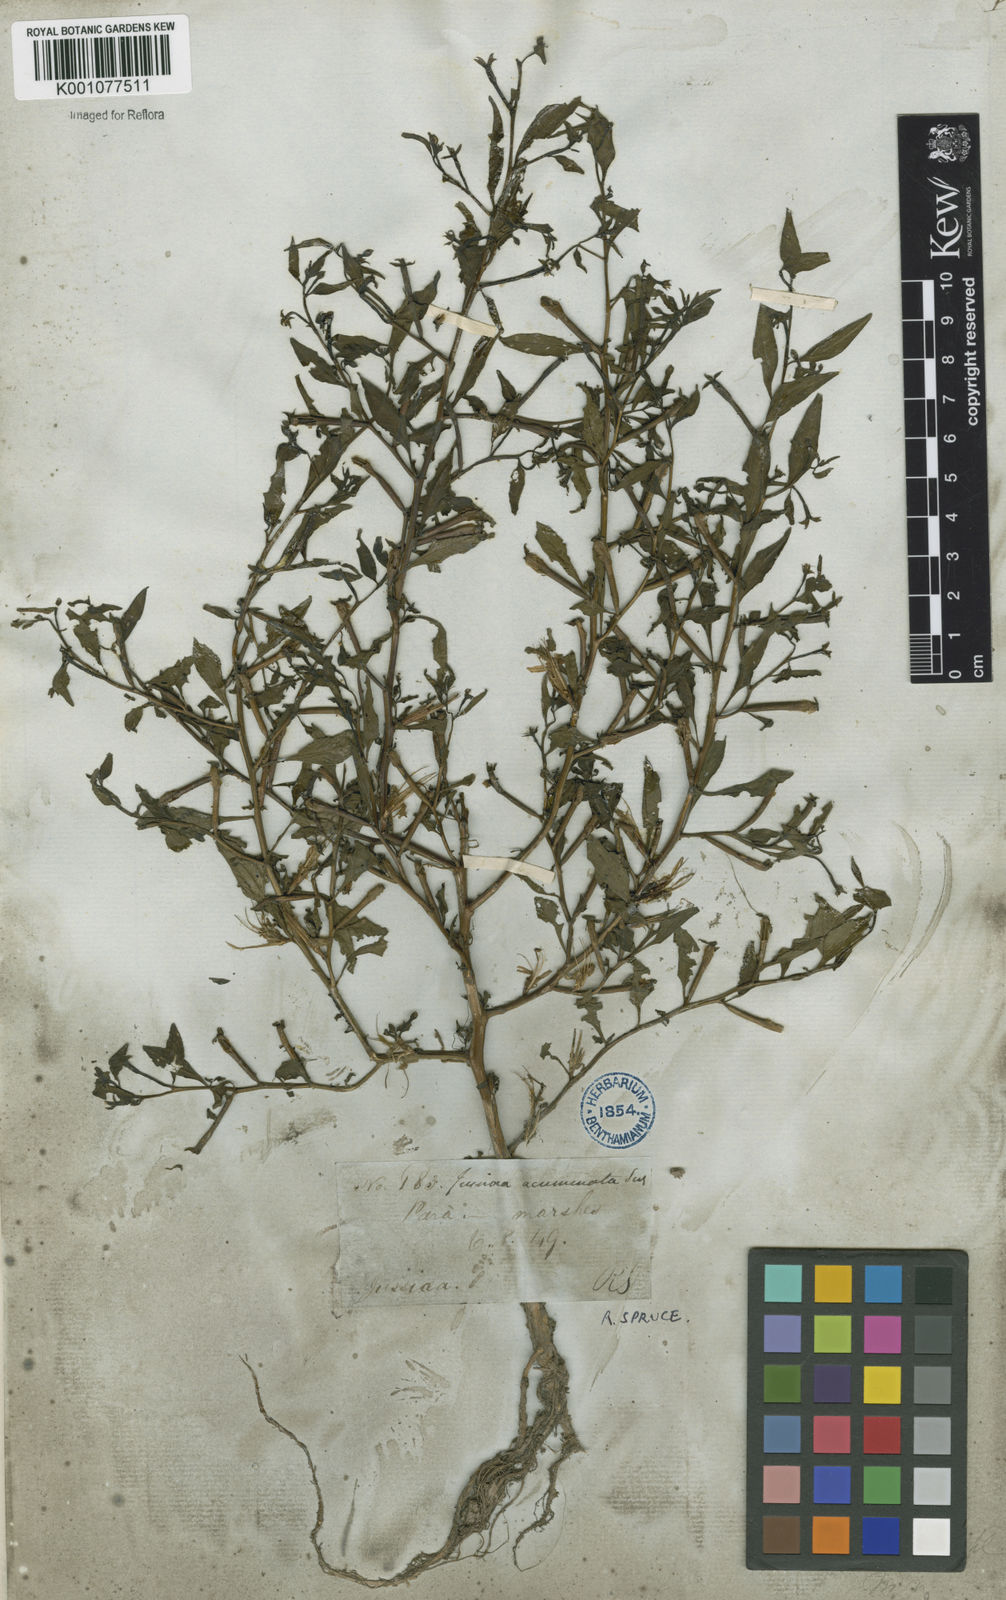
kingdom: Plantae
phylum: Tracheophyta
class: Magnoliopsida
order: Myrtales
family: Onagraceae
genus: Ludwigia
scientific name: Ludwigia hyssopifolia
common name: Linear leaf water primrose
